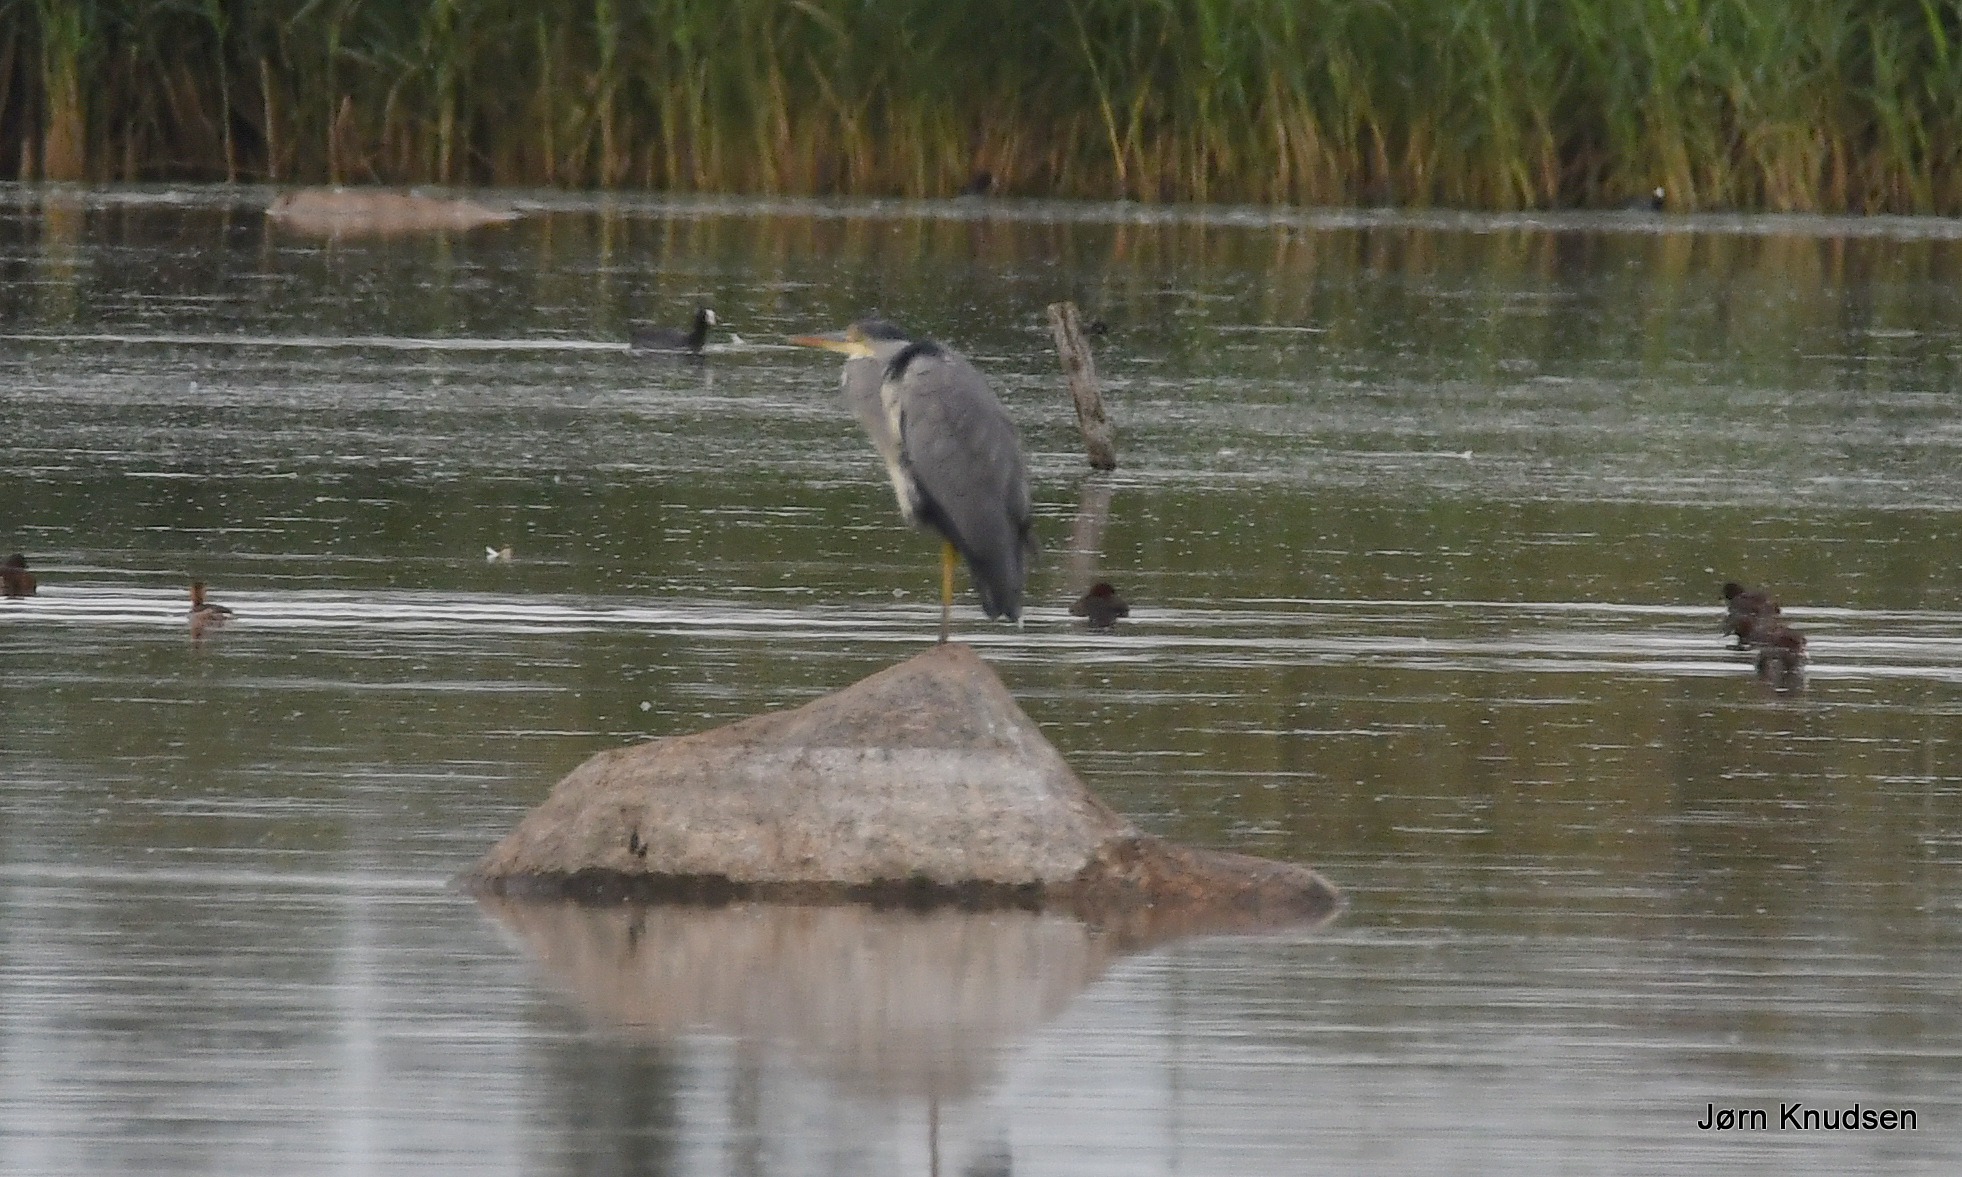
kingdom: Animalia
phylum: Chordata
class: Aves
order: Pelecaniformes
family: Ardeidae
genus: Ardea
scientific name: Ardea cinerea
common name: Fiskehejre
